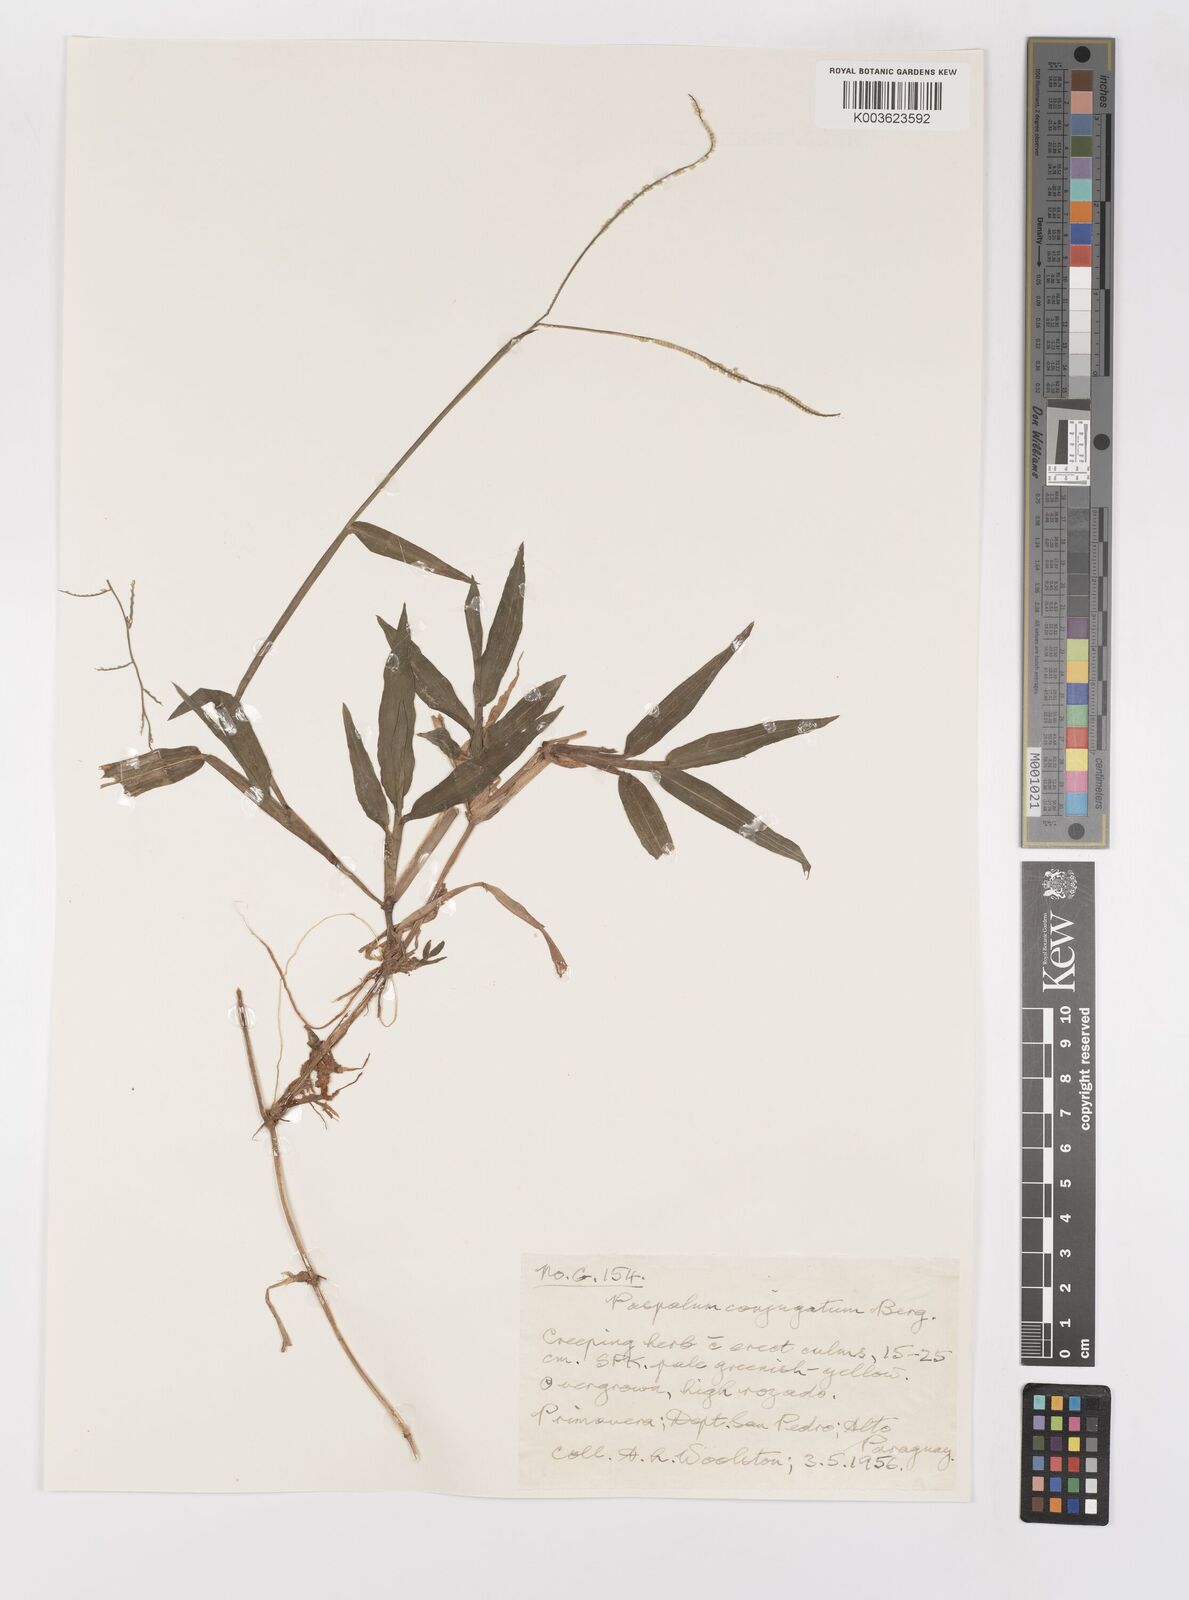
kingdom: Plantae
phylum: Tracheophyta
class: Liliopsida
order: Poales
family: Poaceae
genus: Paspalum
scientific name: Paspalum conjugatum
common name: Hilograss
